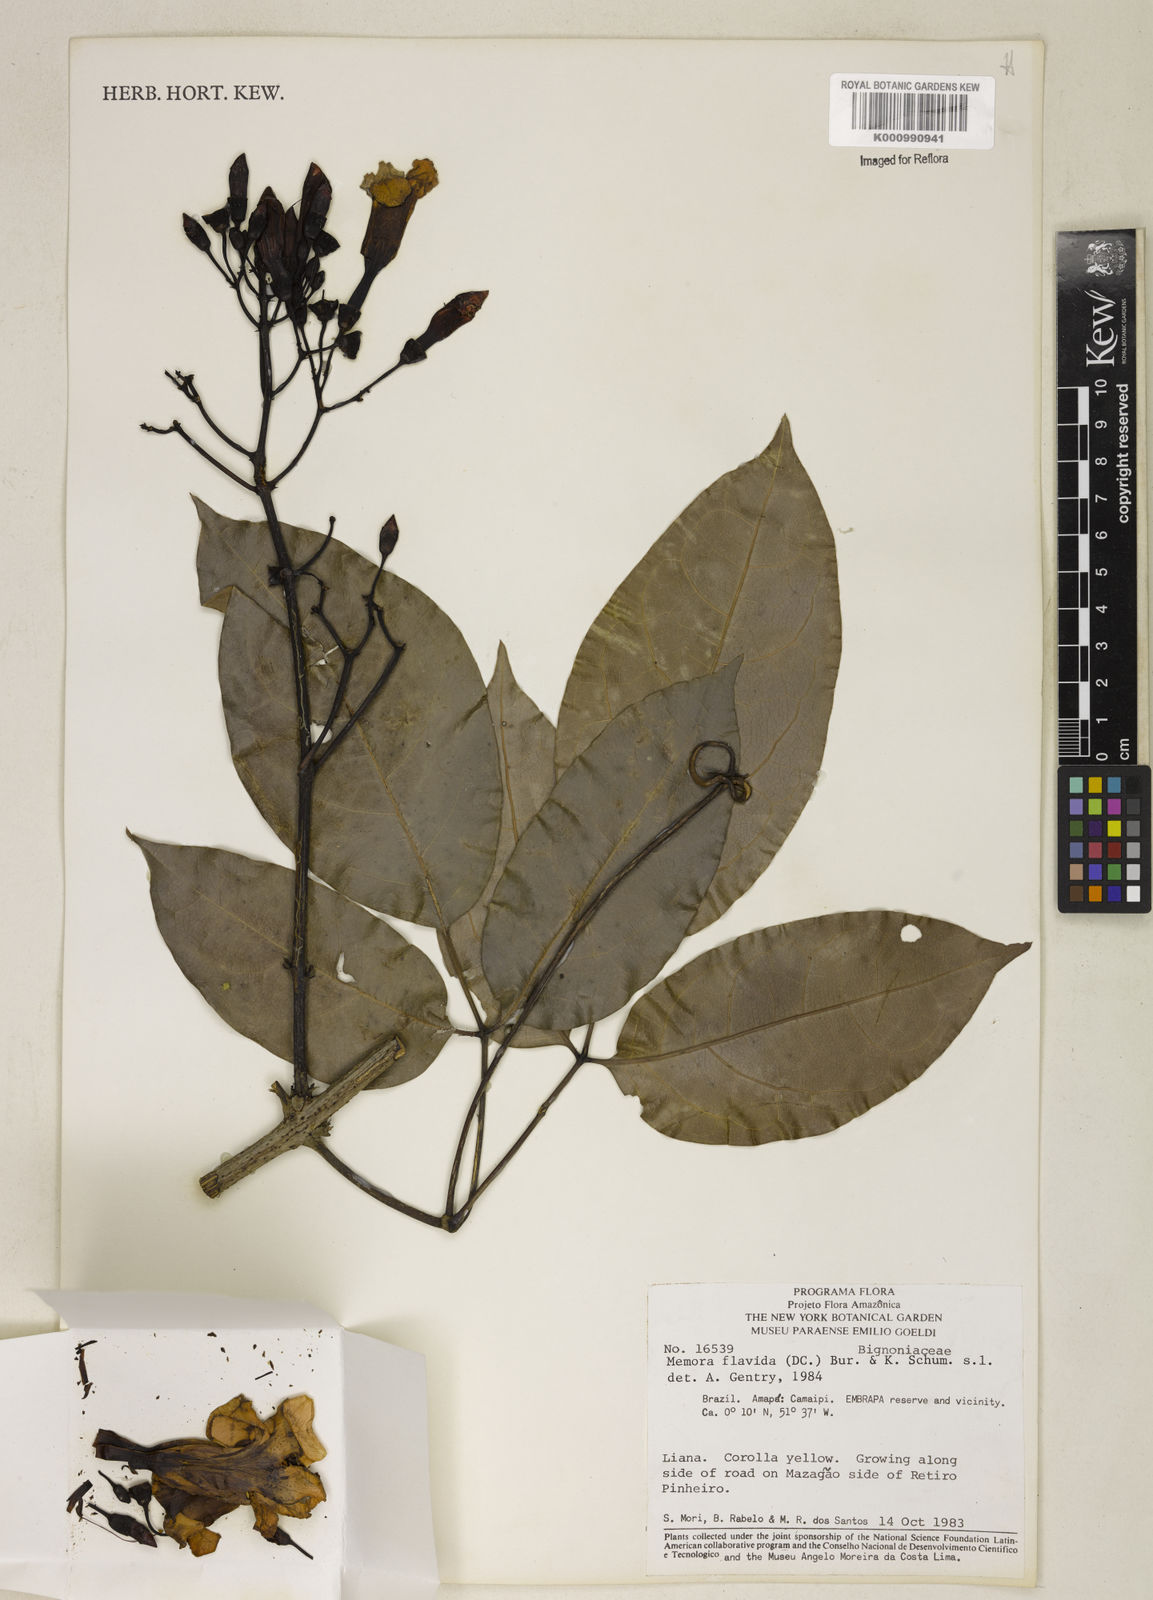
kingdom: Plantae
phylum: Tracheophyta
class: Magnoliopsida
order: Lamiales
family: Bignoniaceae
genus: Adenocalymma
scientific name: Adenocalymma neoflavidum
